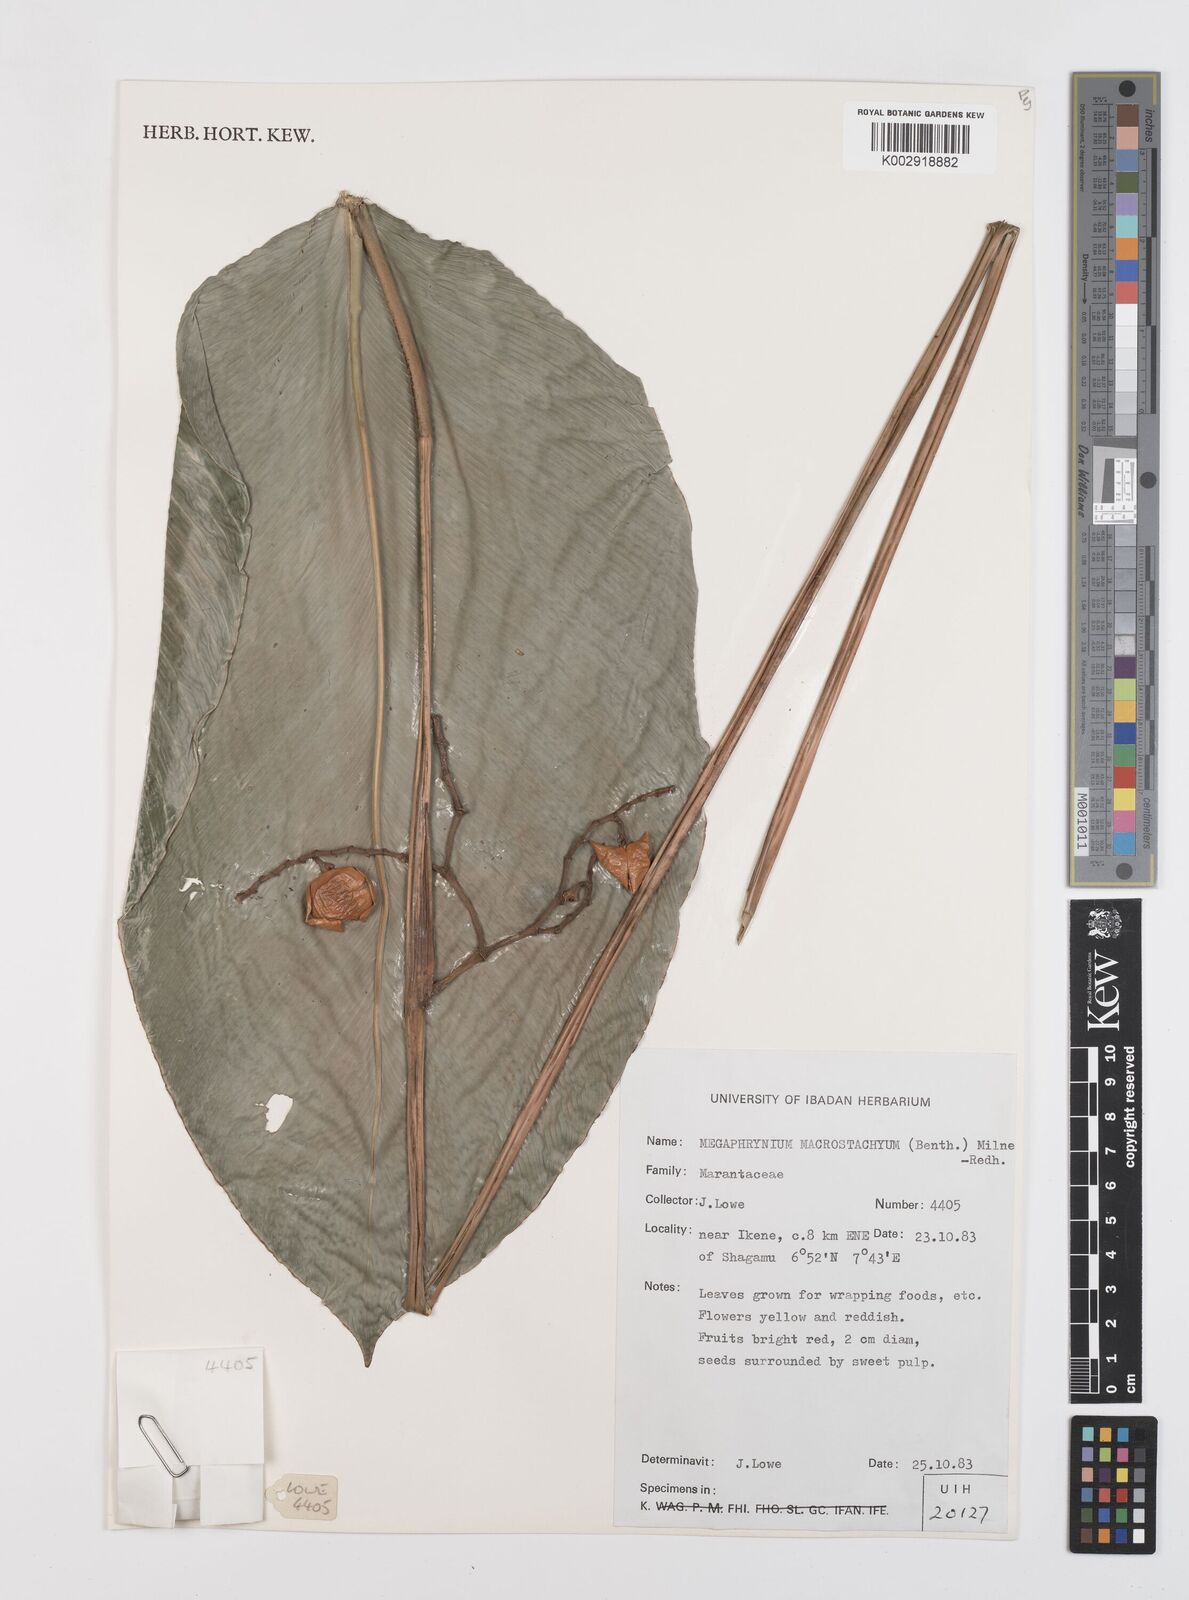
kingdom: Plantae
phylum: Tracheophyta
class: Liliopsida
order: Zingiberales
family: Marantaceae
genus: Megaphrynium
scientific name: Megaphrynium macrostachyum
